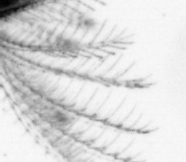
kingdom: Animalia
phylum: Arthropoda
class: Maxillopoda
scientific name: Maxillopoda
